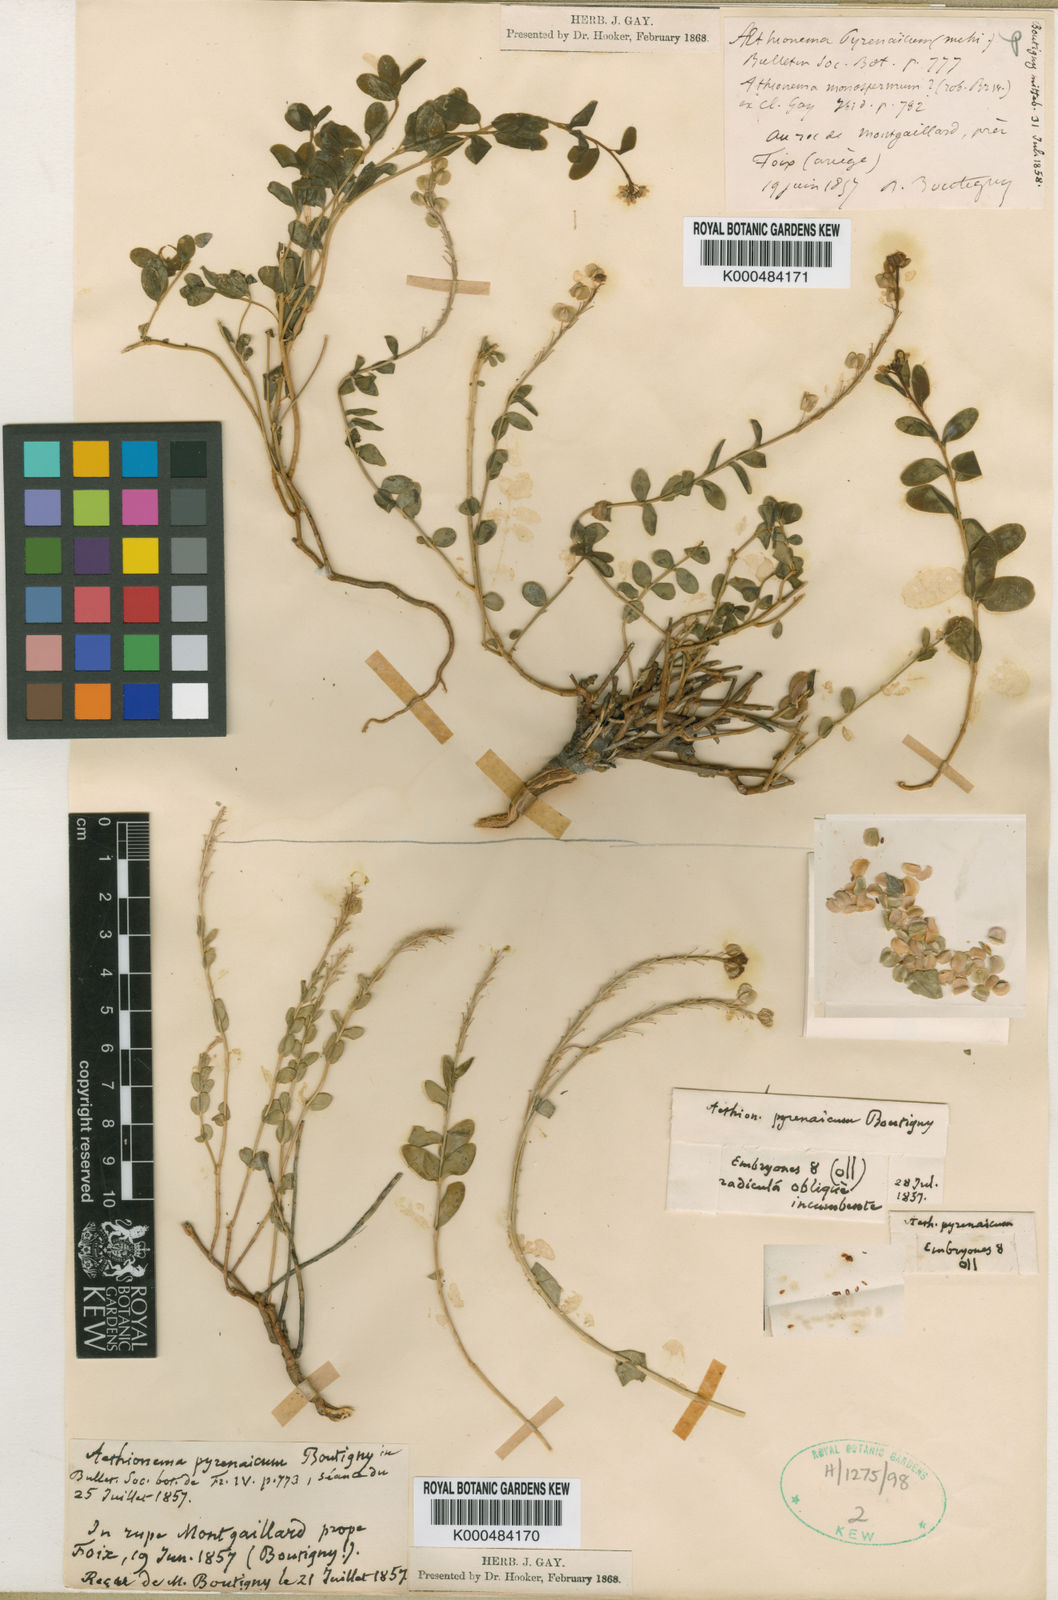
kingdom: Plantae
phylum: Tracheophyta
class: Magnoliopsida
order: Brassicales
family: Brassicaceae
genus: Aethionema
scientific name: Aethionema
